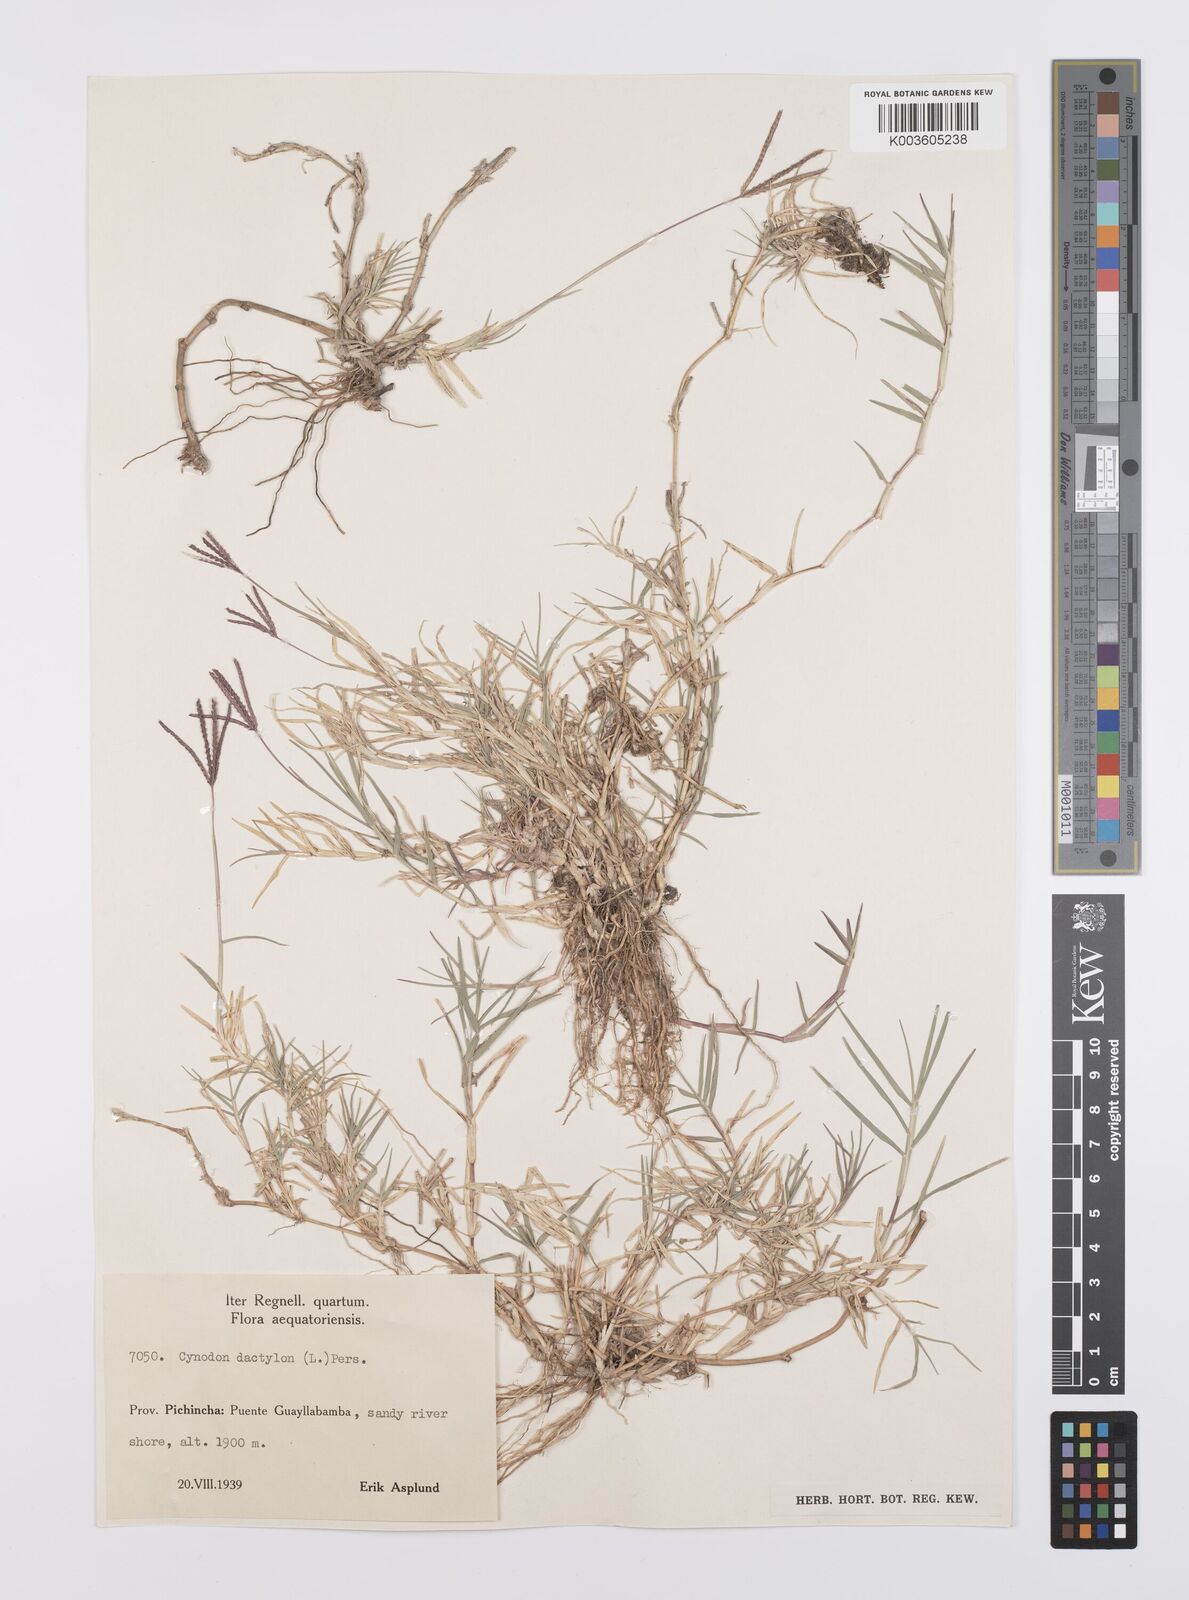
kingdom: Plantae
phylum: Tracheophyta
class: Liliopsida
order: Poales
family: Poaceae
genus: Cynodon
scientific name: Cynodon dactylon
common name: Bermuda grass
